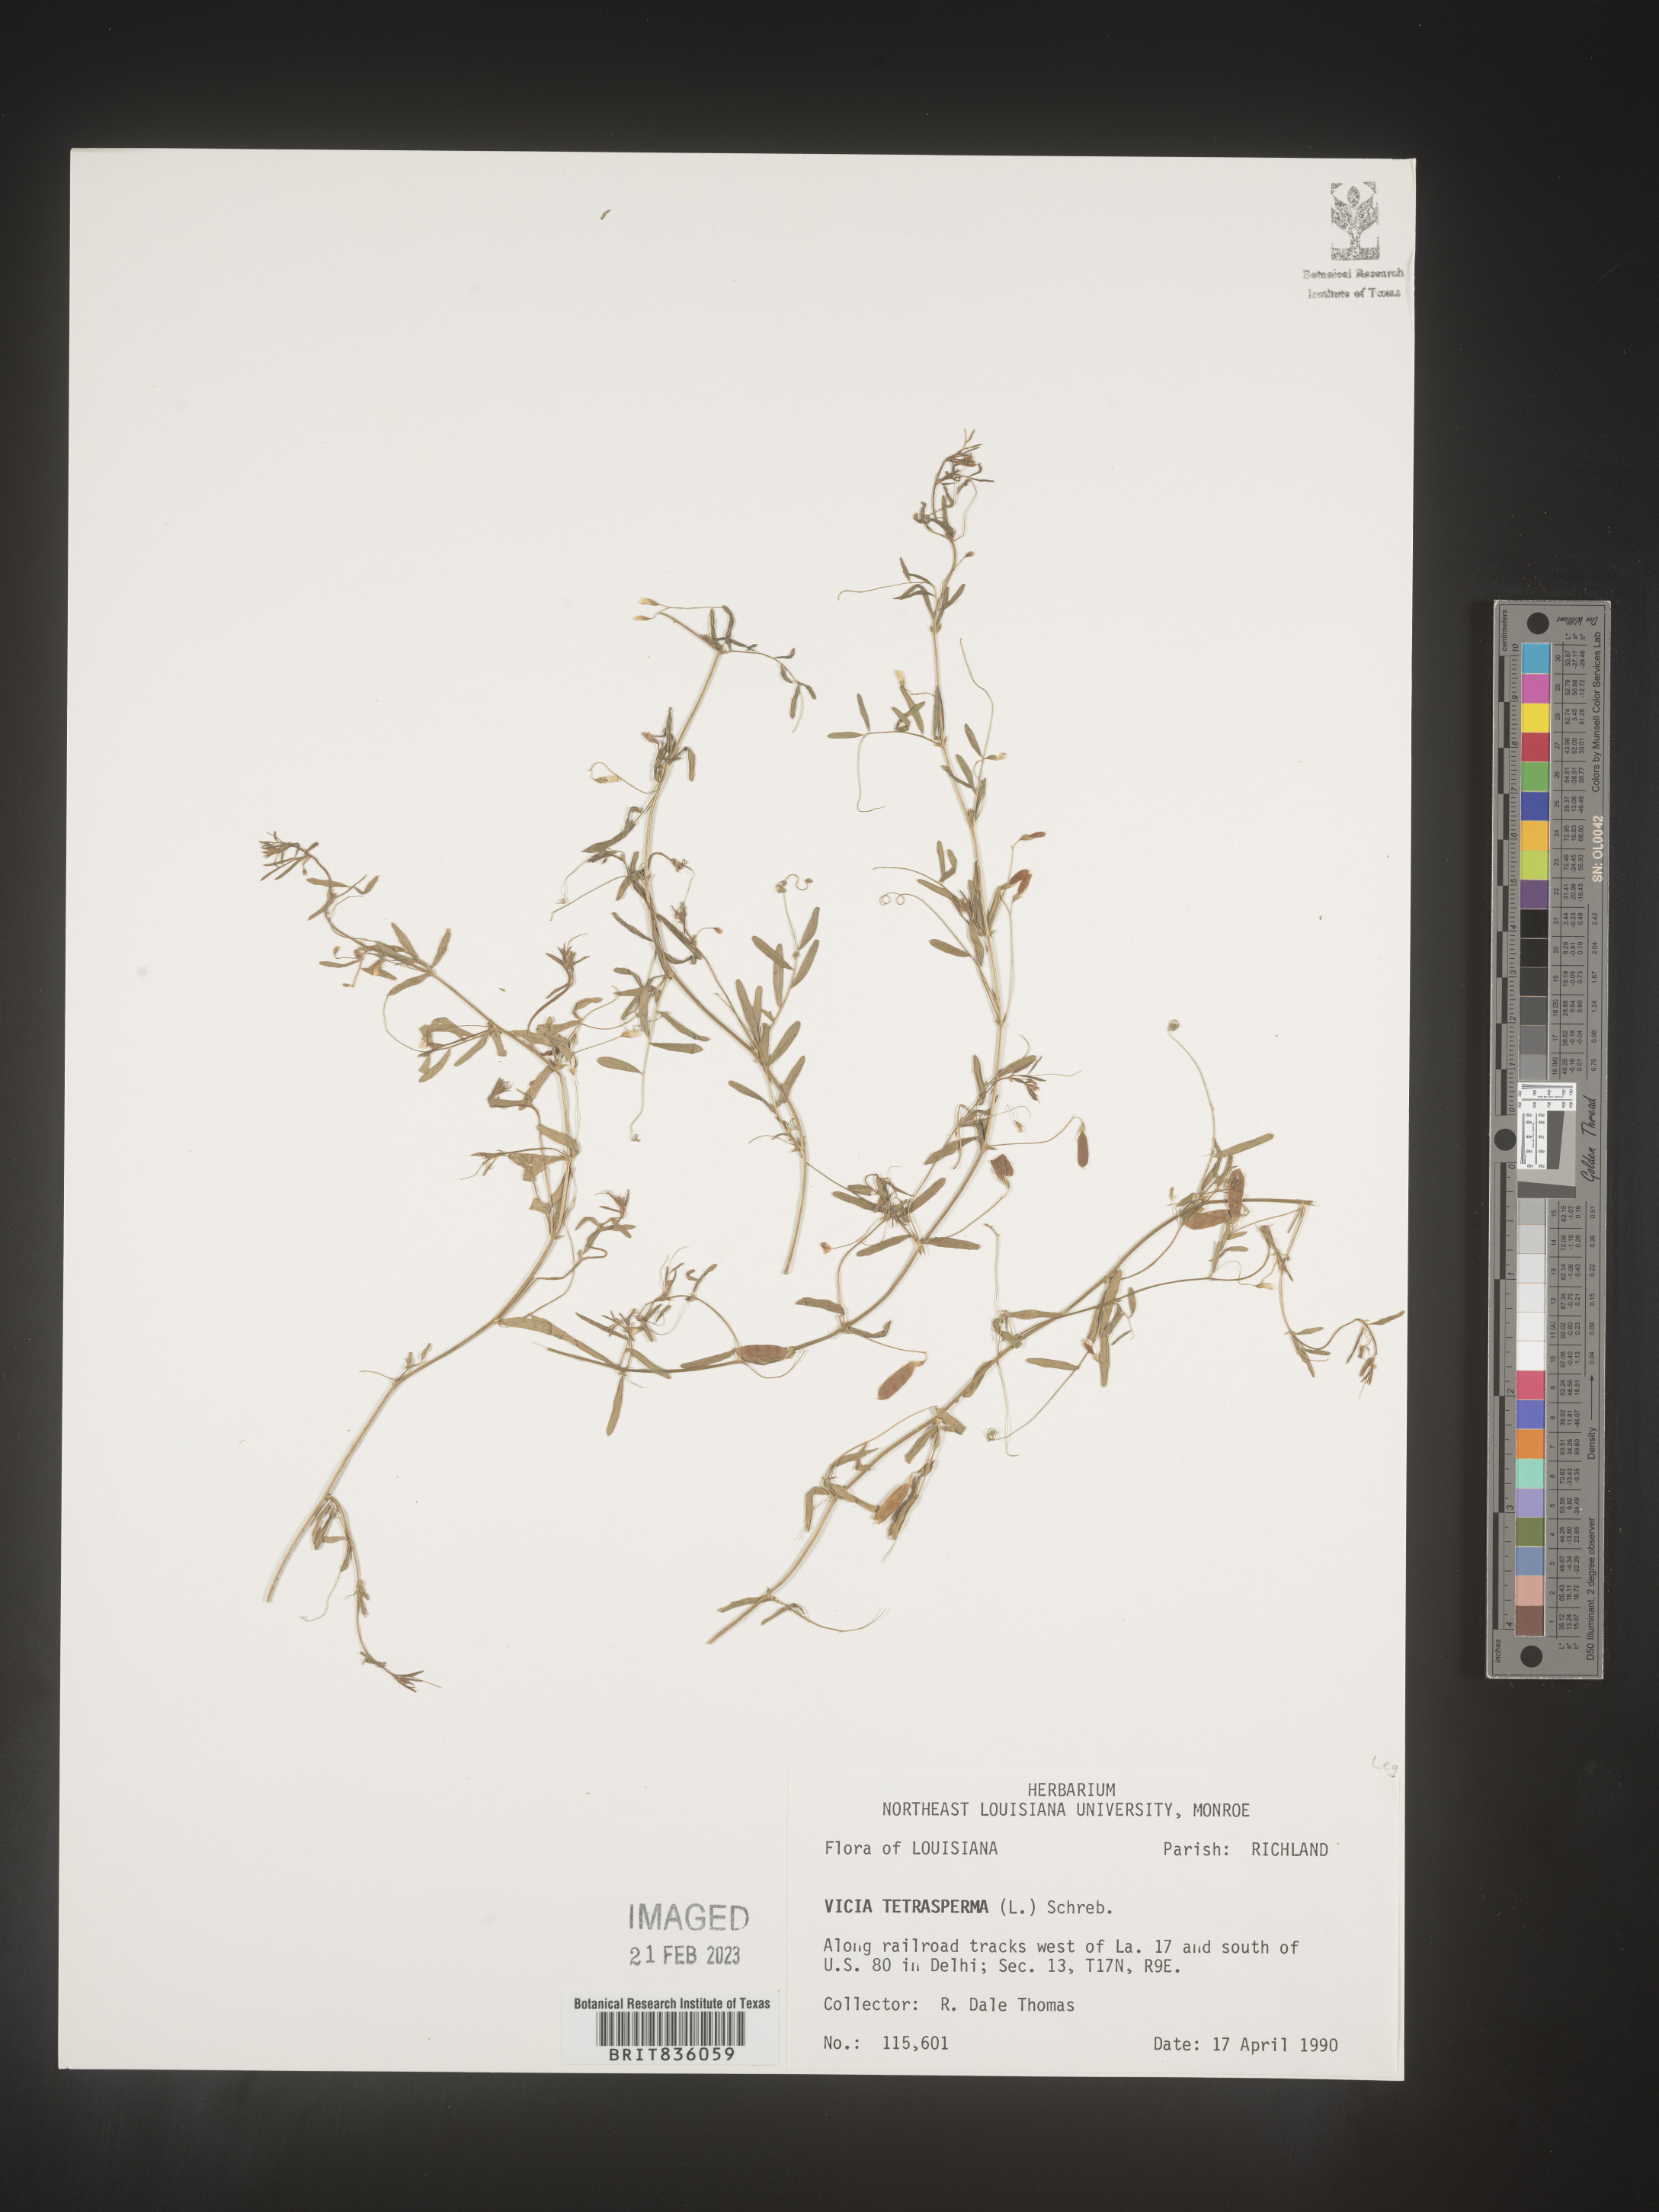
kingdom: Plantae
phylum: Tracheophyta
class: Magnoliopsida
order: Fabales
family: Fabaceae
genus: Vicia
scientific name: Vicia tetrasperma
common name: Smooth tare
